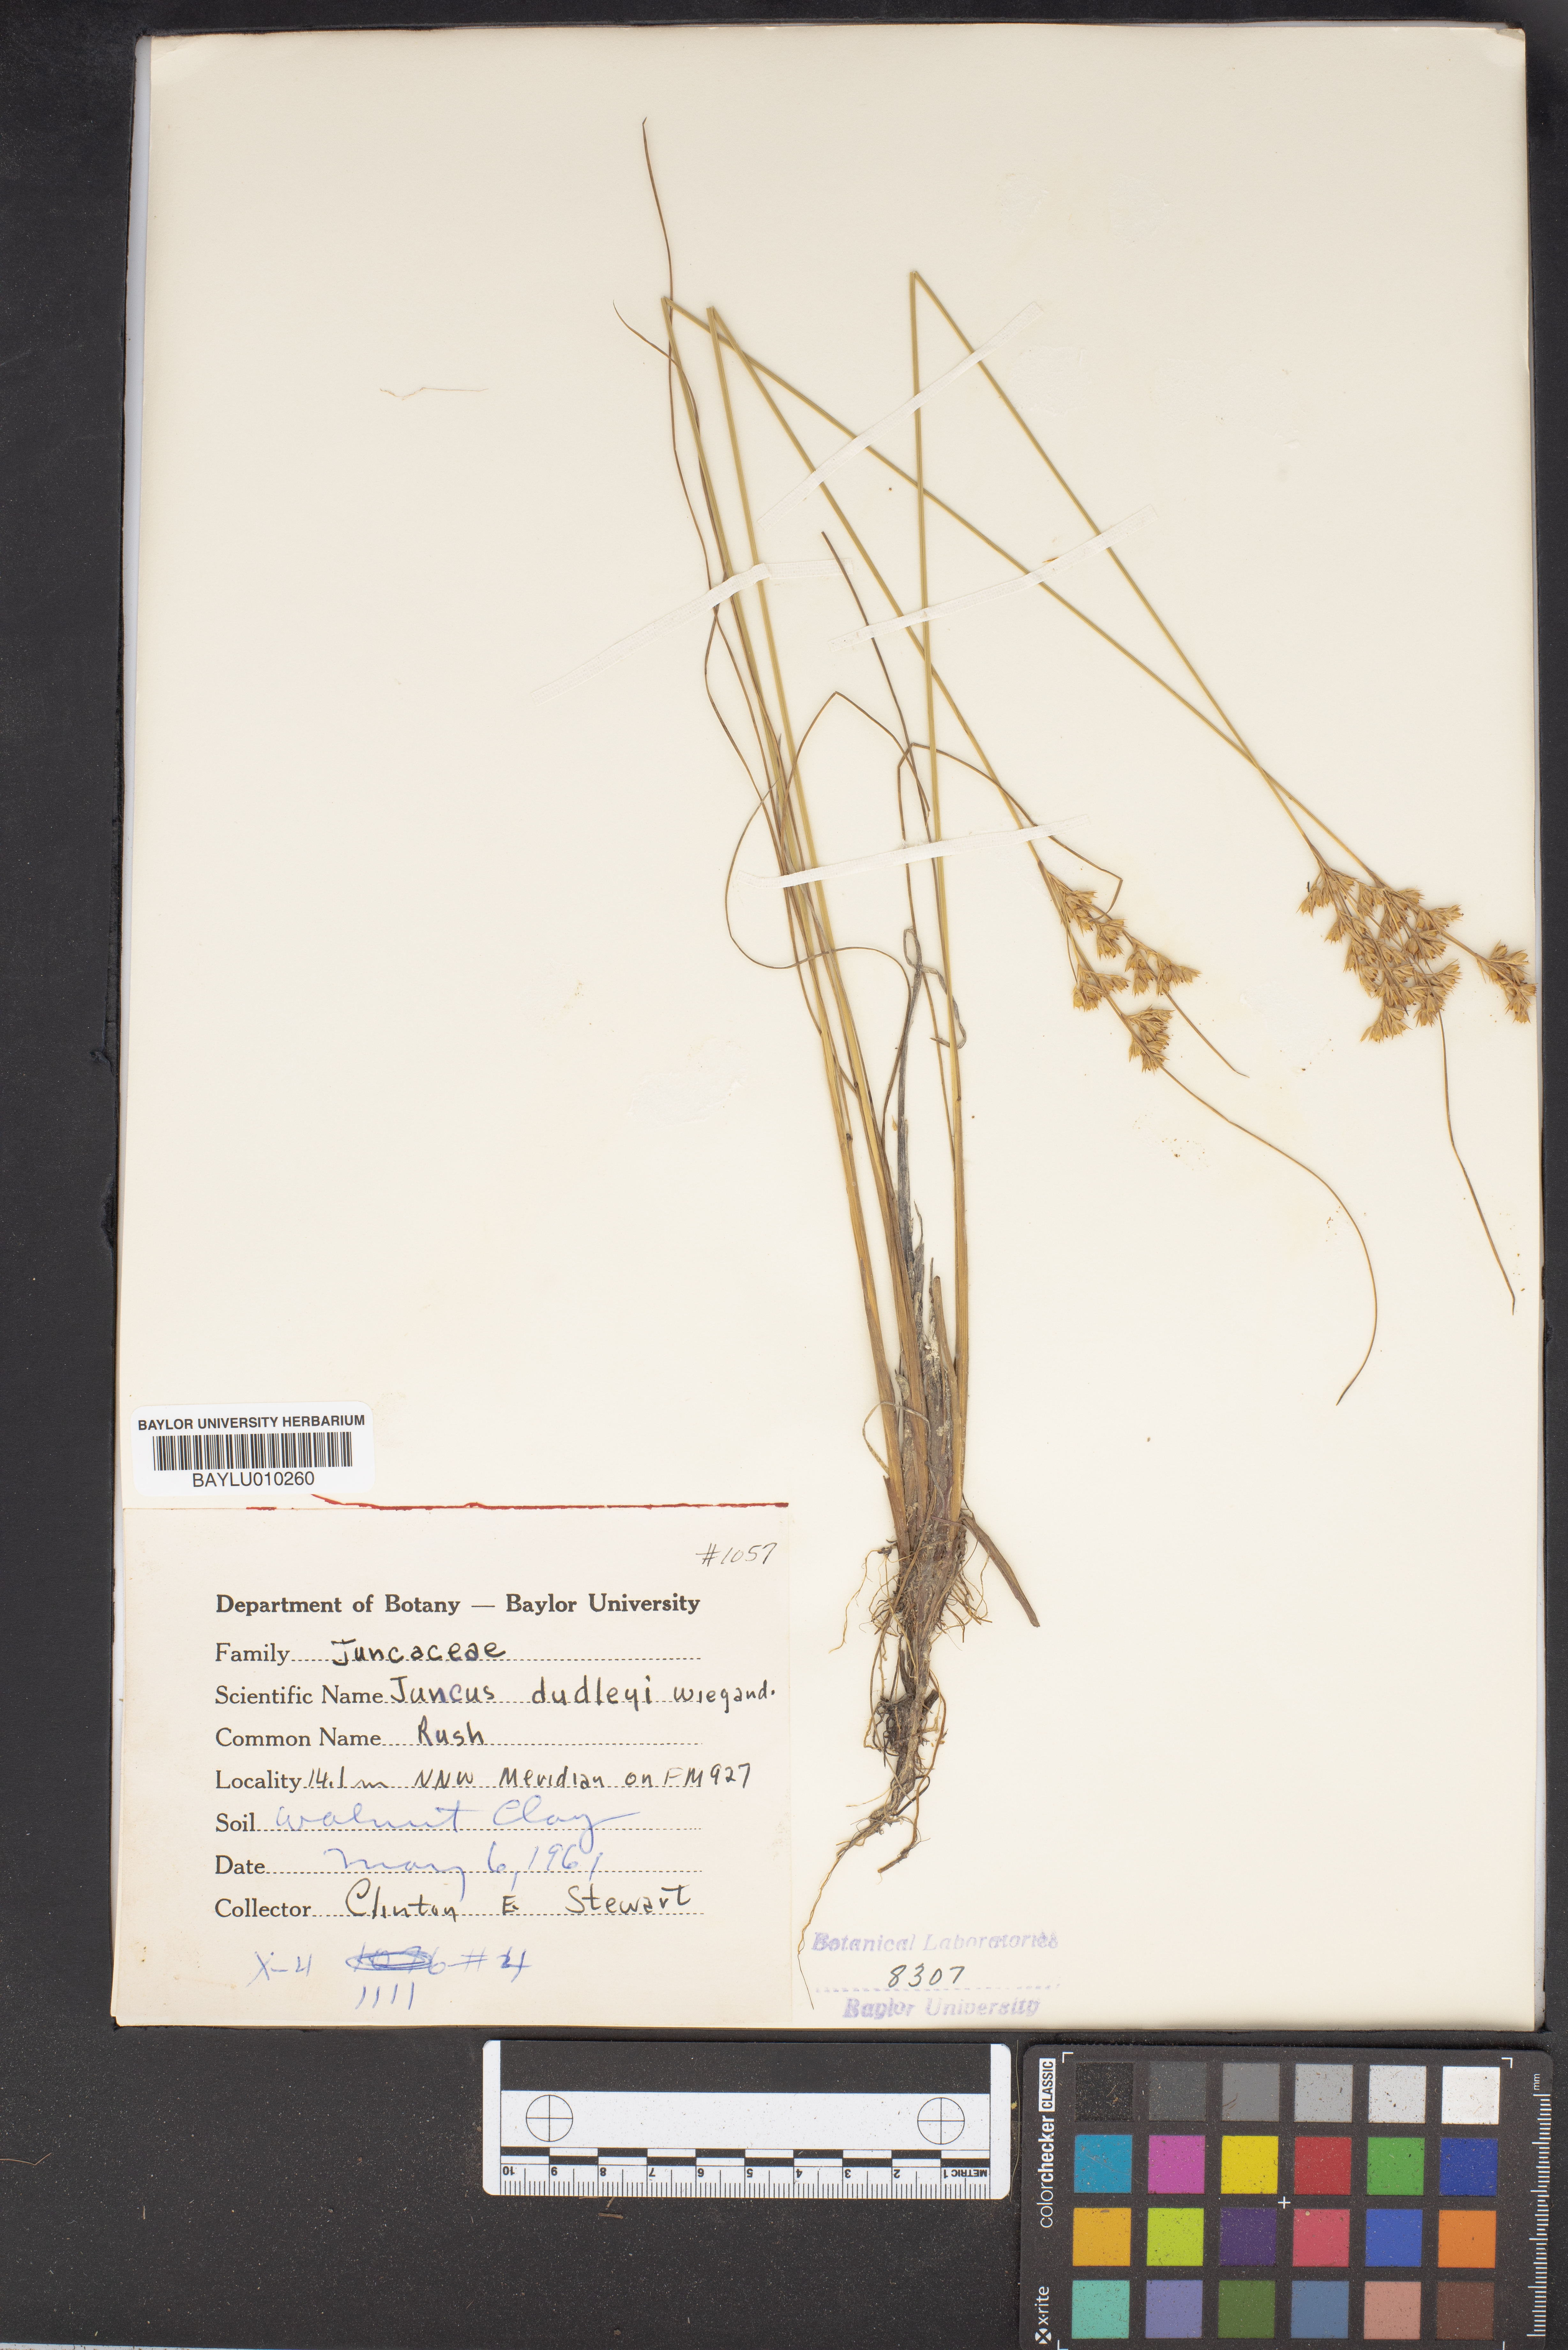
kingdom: Plantae
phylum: Tracheophyta
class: Liliopsida
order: Poales
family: Juncaceae
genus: Juncus
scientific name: Juncus dudleyi
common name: Dudley's rush
